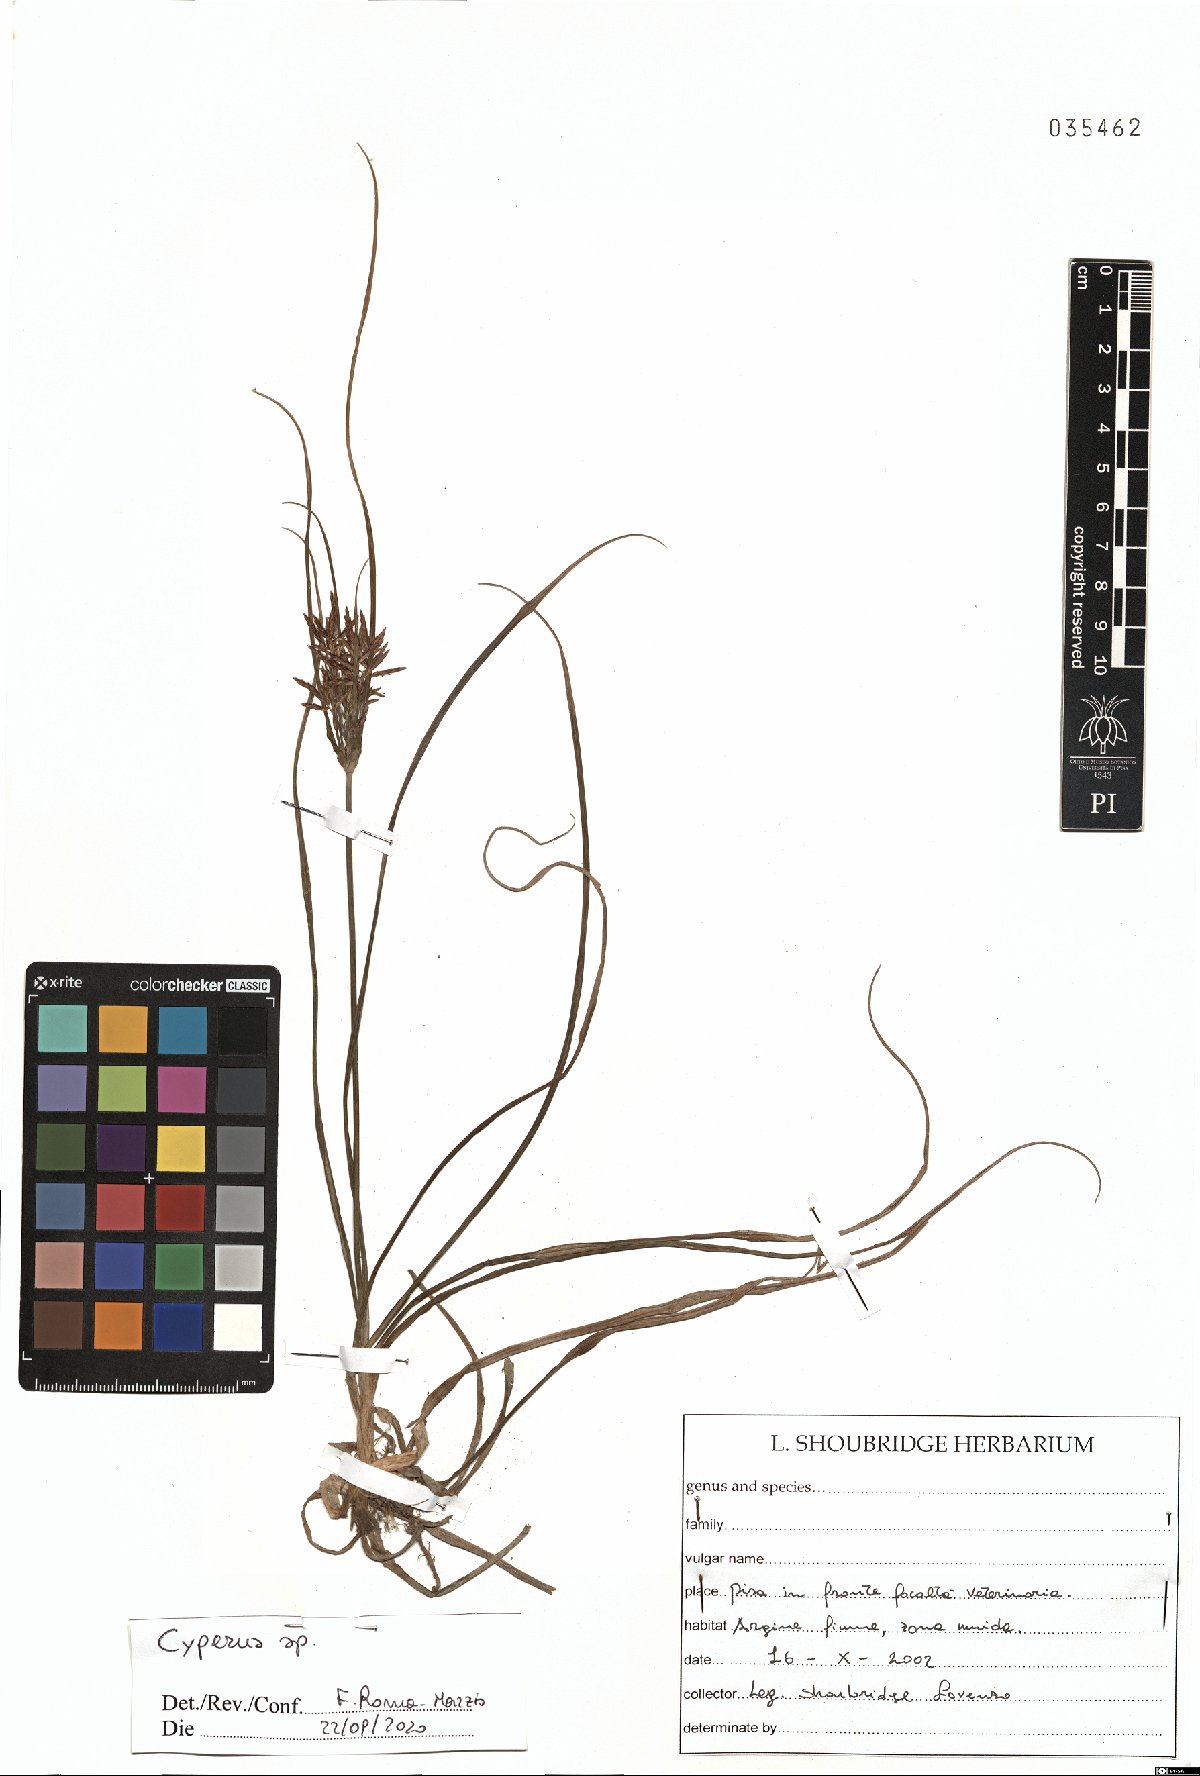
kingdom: Plantae
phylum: Tracheophyta
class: Liliopsida
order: Poales
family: Cyperaceae
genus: Cyperus
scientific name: Cyperus
